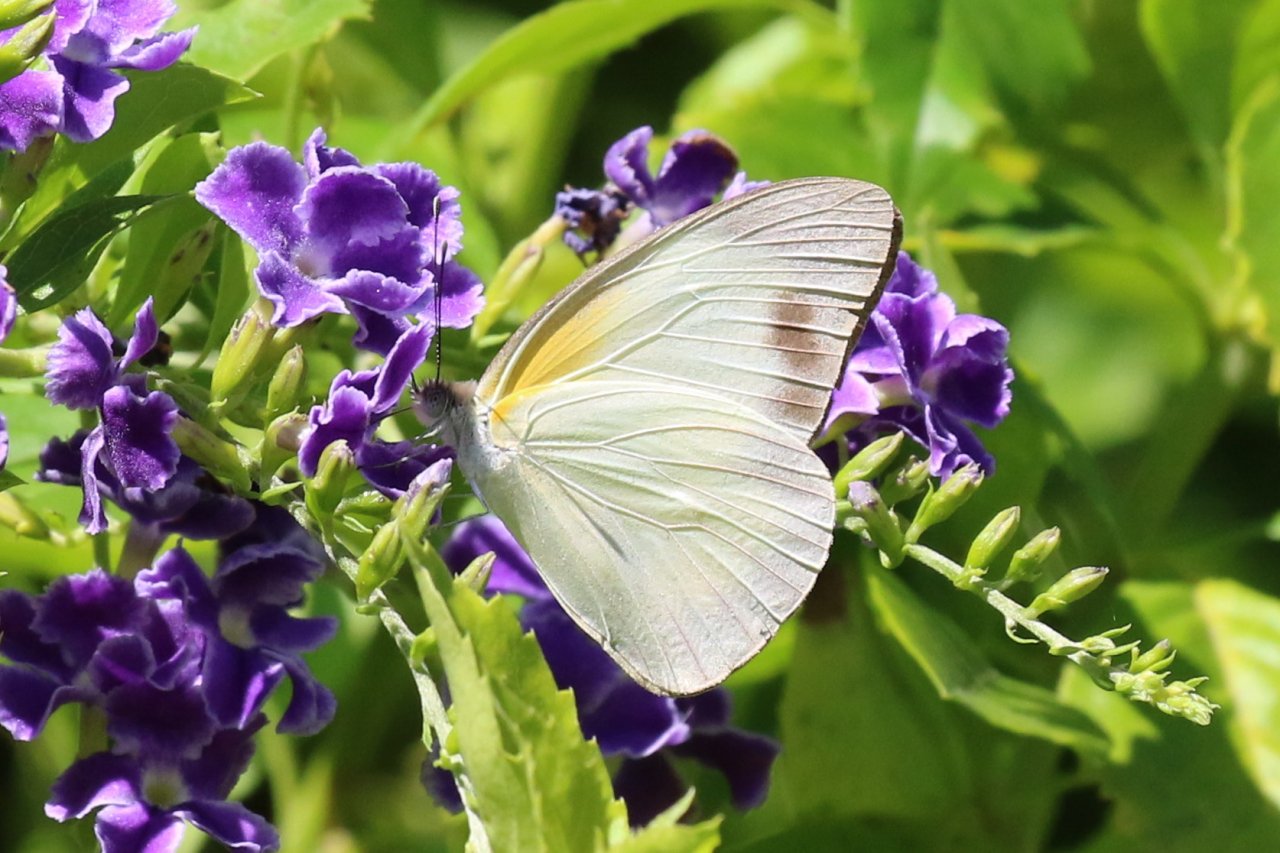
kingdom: Animalia
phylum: Arthropoda
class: Insecta
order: Lepidoptera
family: Pieridae
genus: Glutophrissa
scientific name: Glutophrissa drusilla
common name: Florida White
